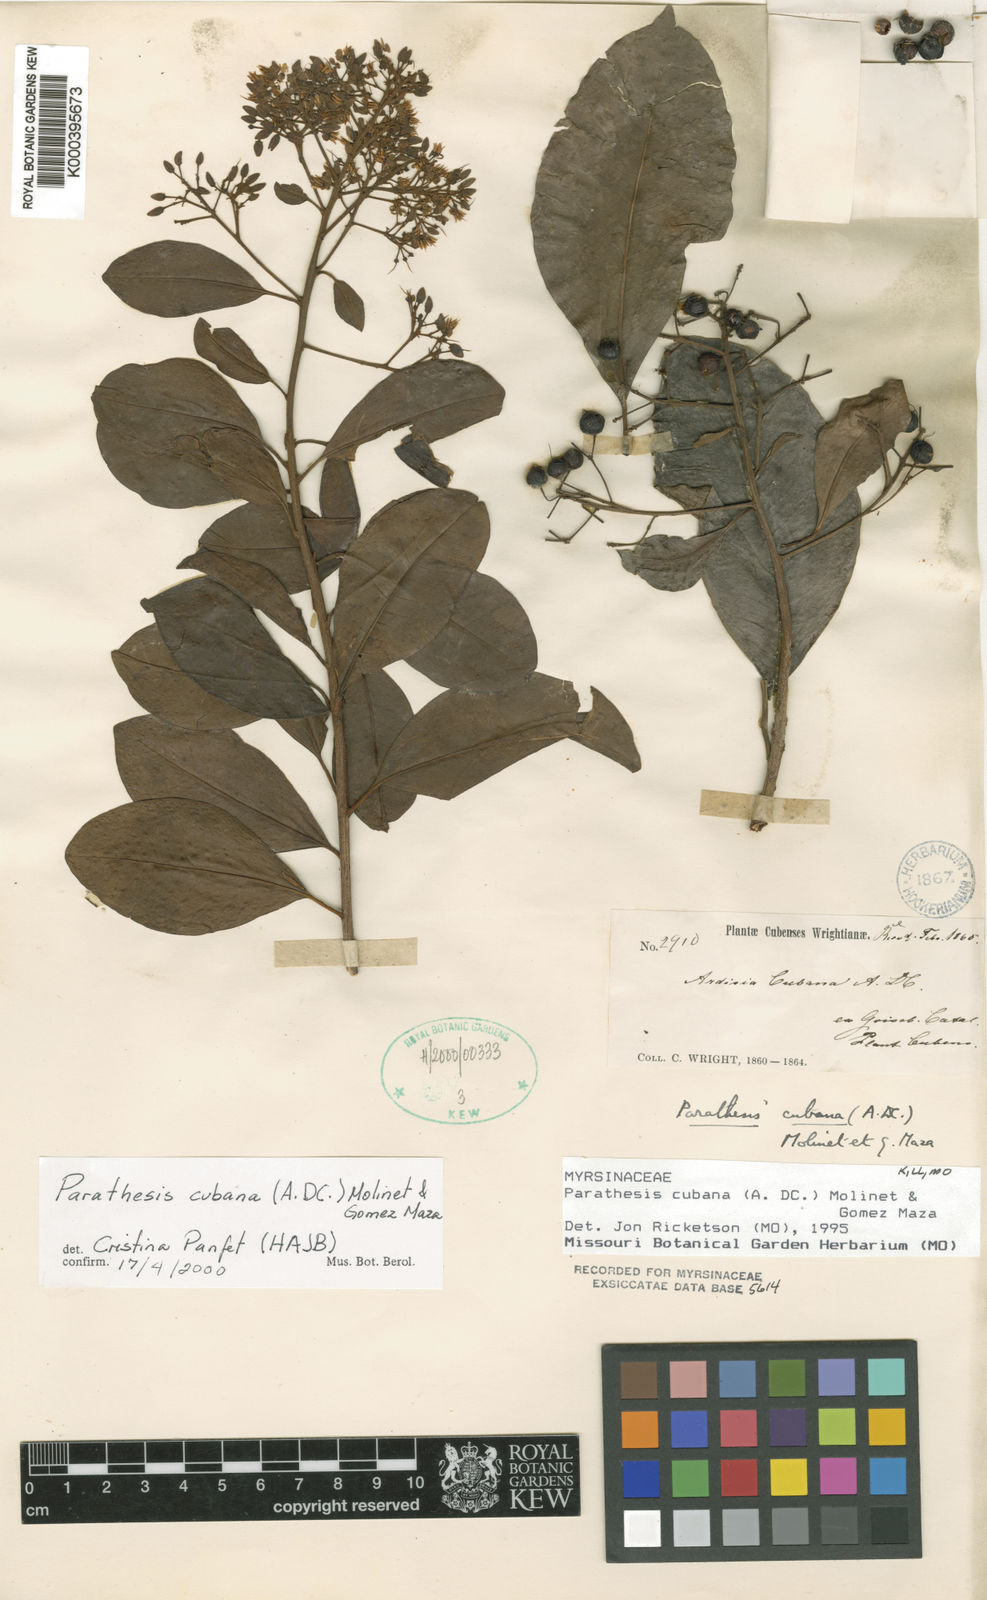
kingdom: Plantae
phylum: Tracheophyta
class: Magnoliopsida
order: Ericales
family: Primulaceae
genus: Parathesis
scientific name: Parathesis
